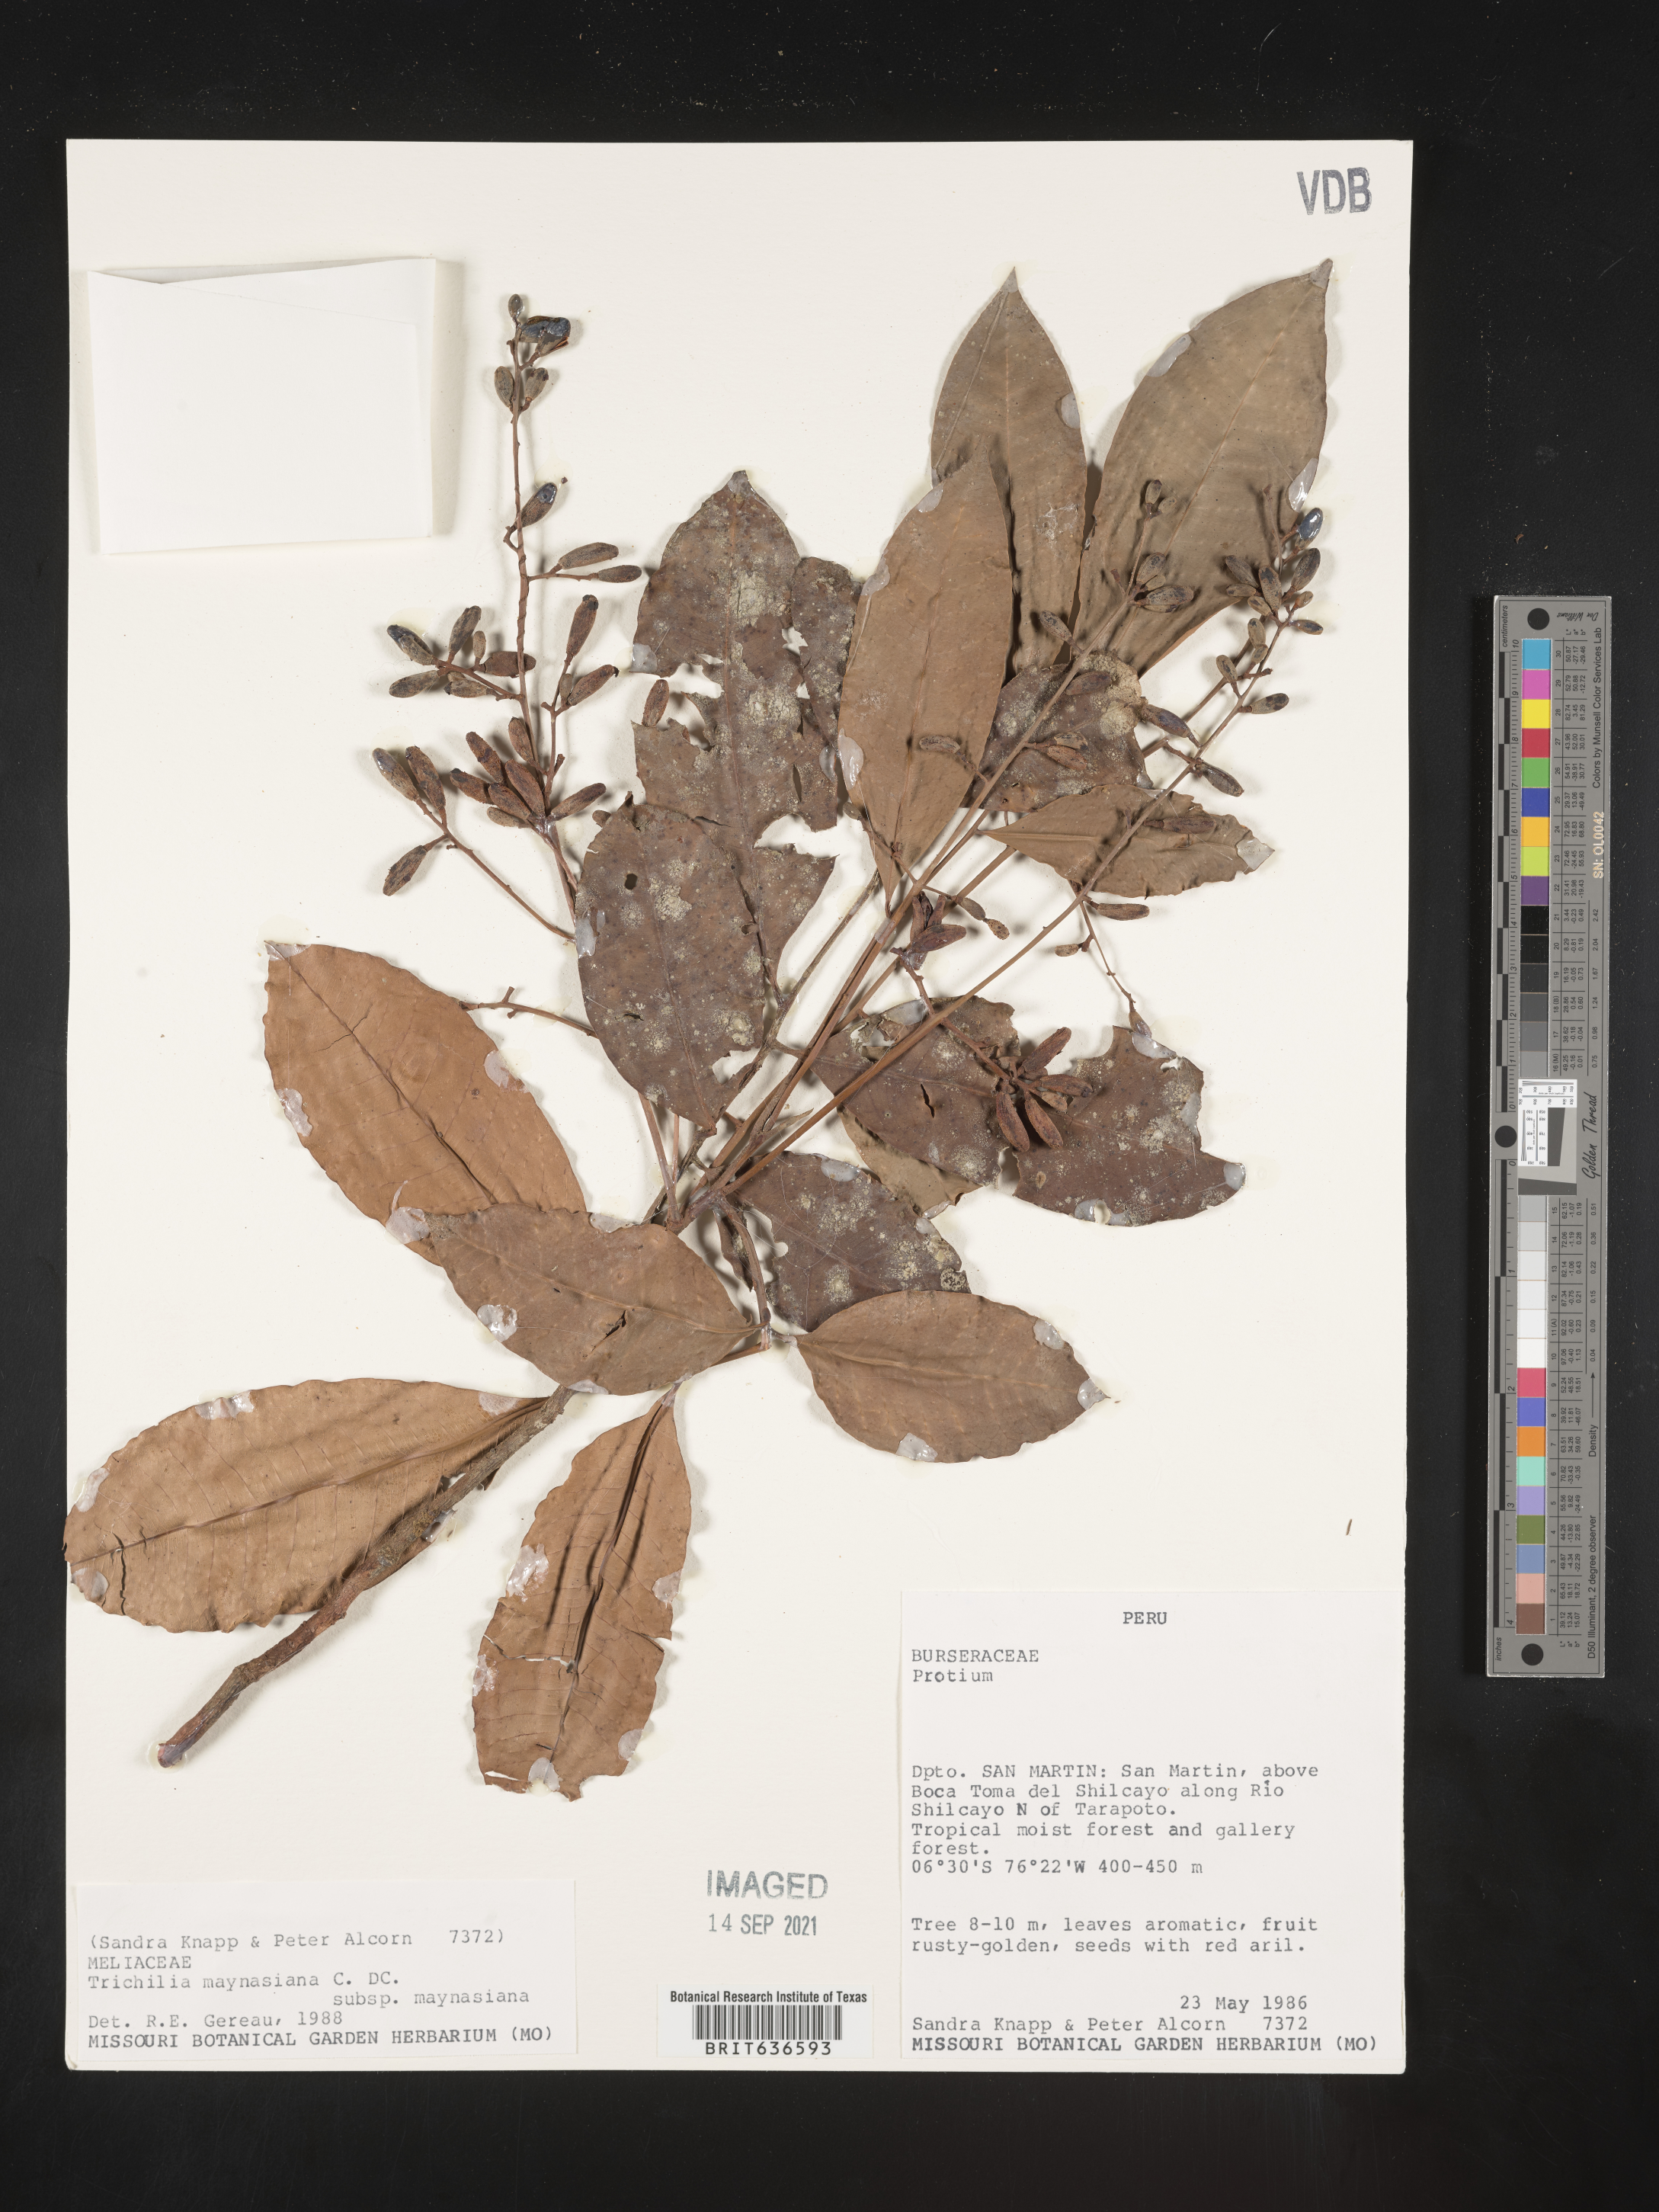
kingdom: Plantae
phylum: Tracheophyta
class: Magnoliopsida
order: Sapindales
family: Meliaceae
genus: Trichilia
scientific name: Trichilia
